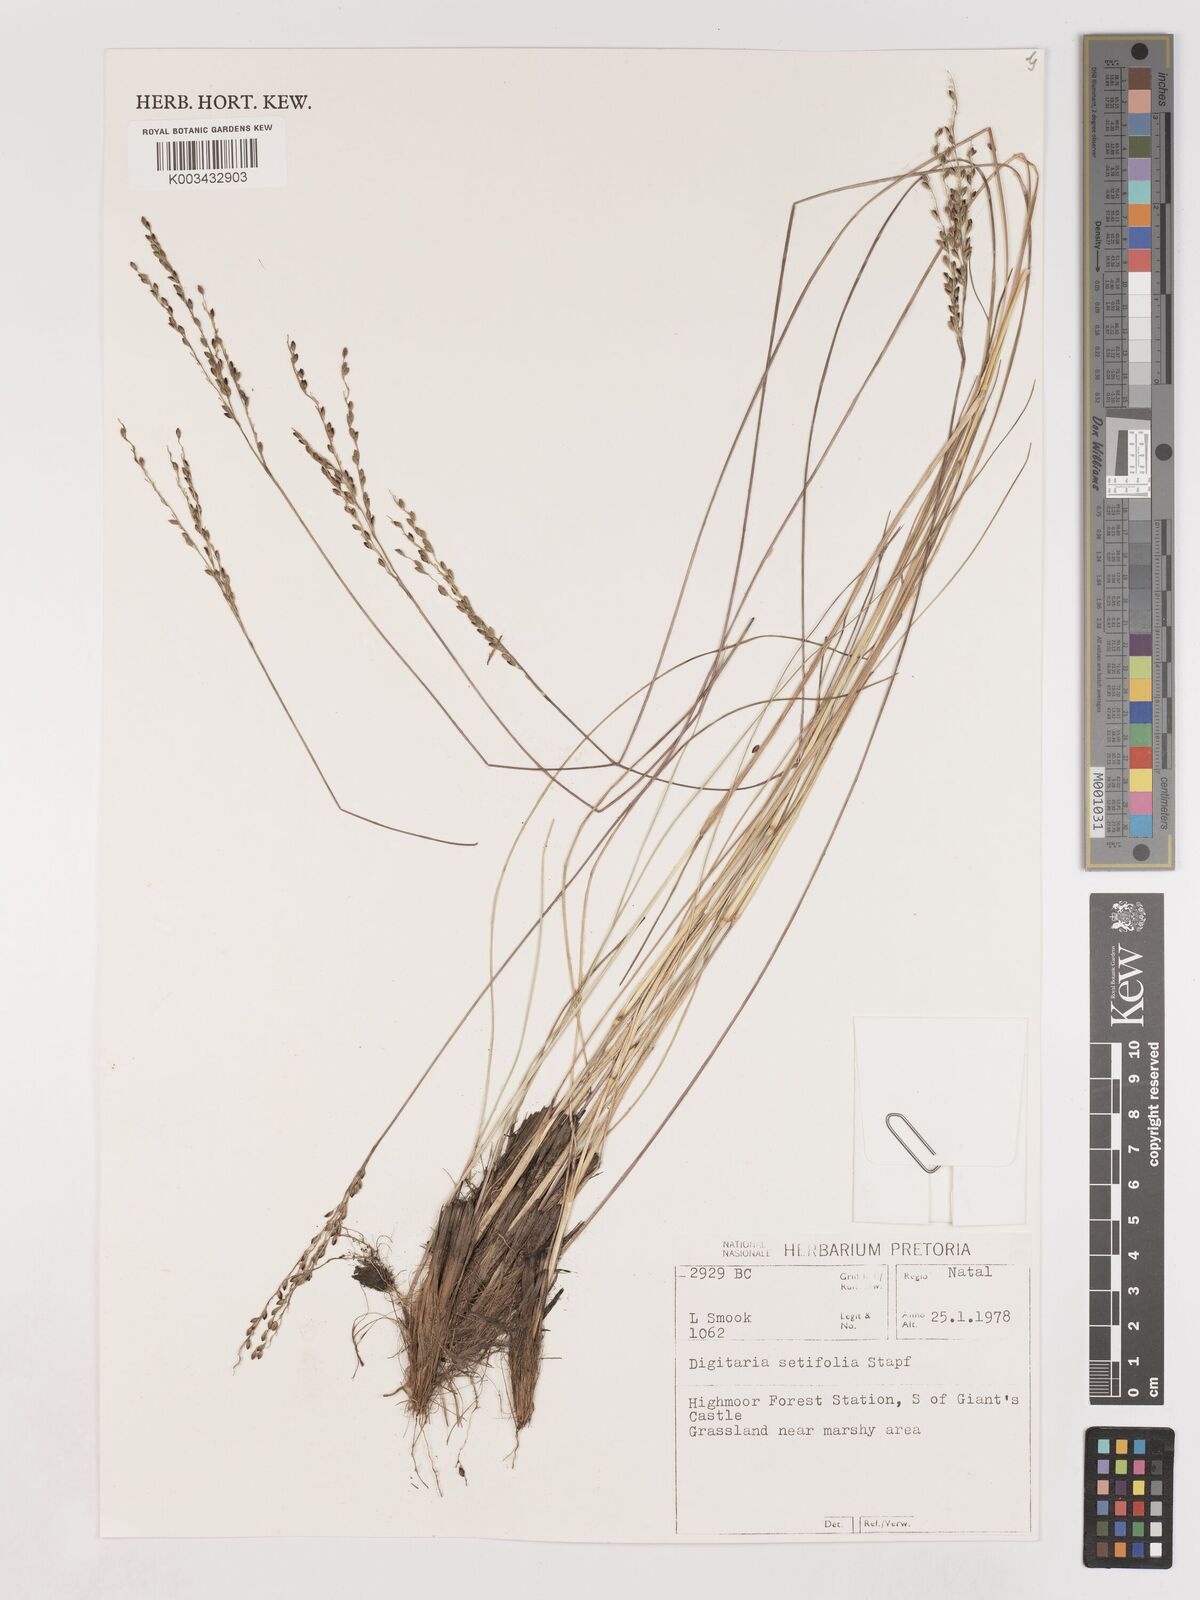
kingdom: Plantae
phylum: Tracheophyta
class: Liliopsida
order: Poales
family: Poaceae
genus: Digitaria
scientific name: Digitaria setifolia
